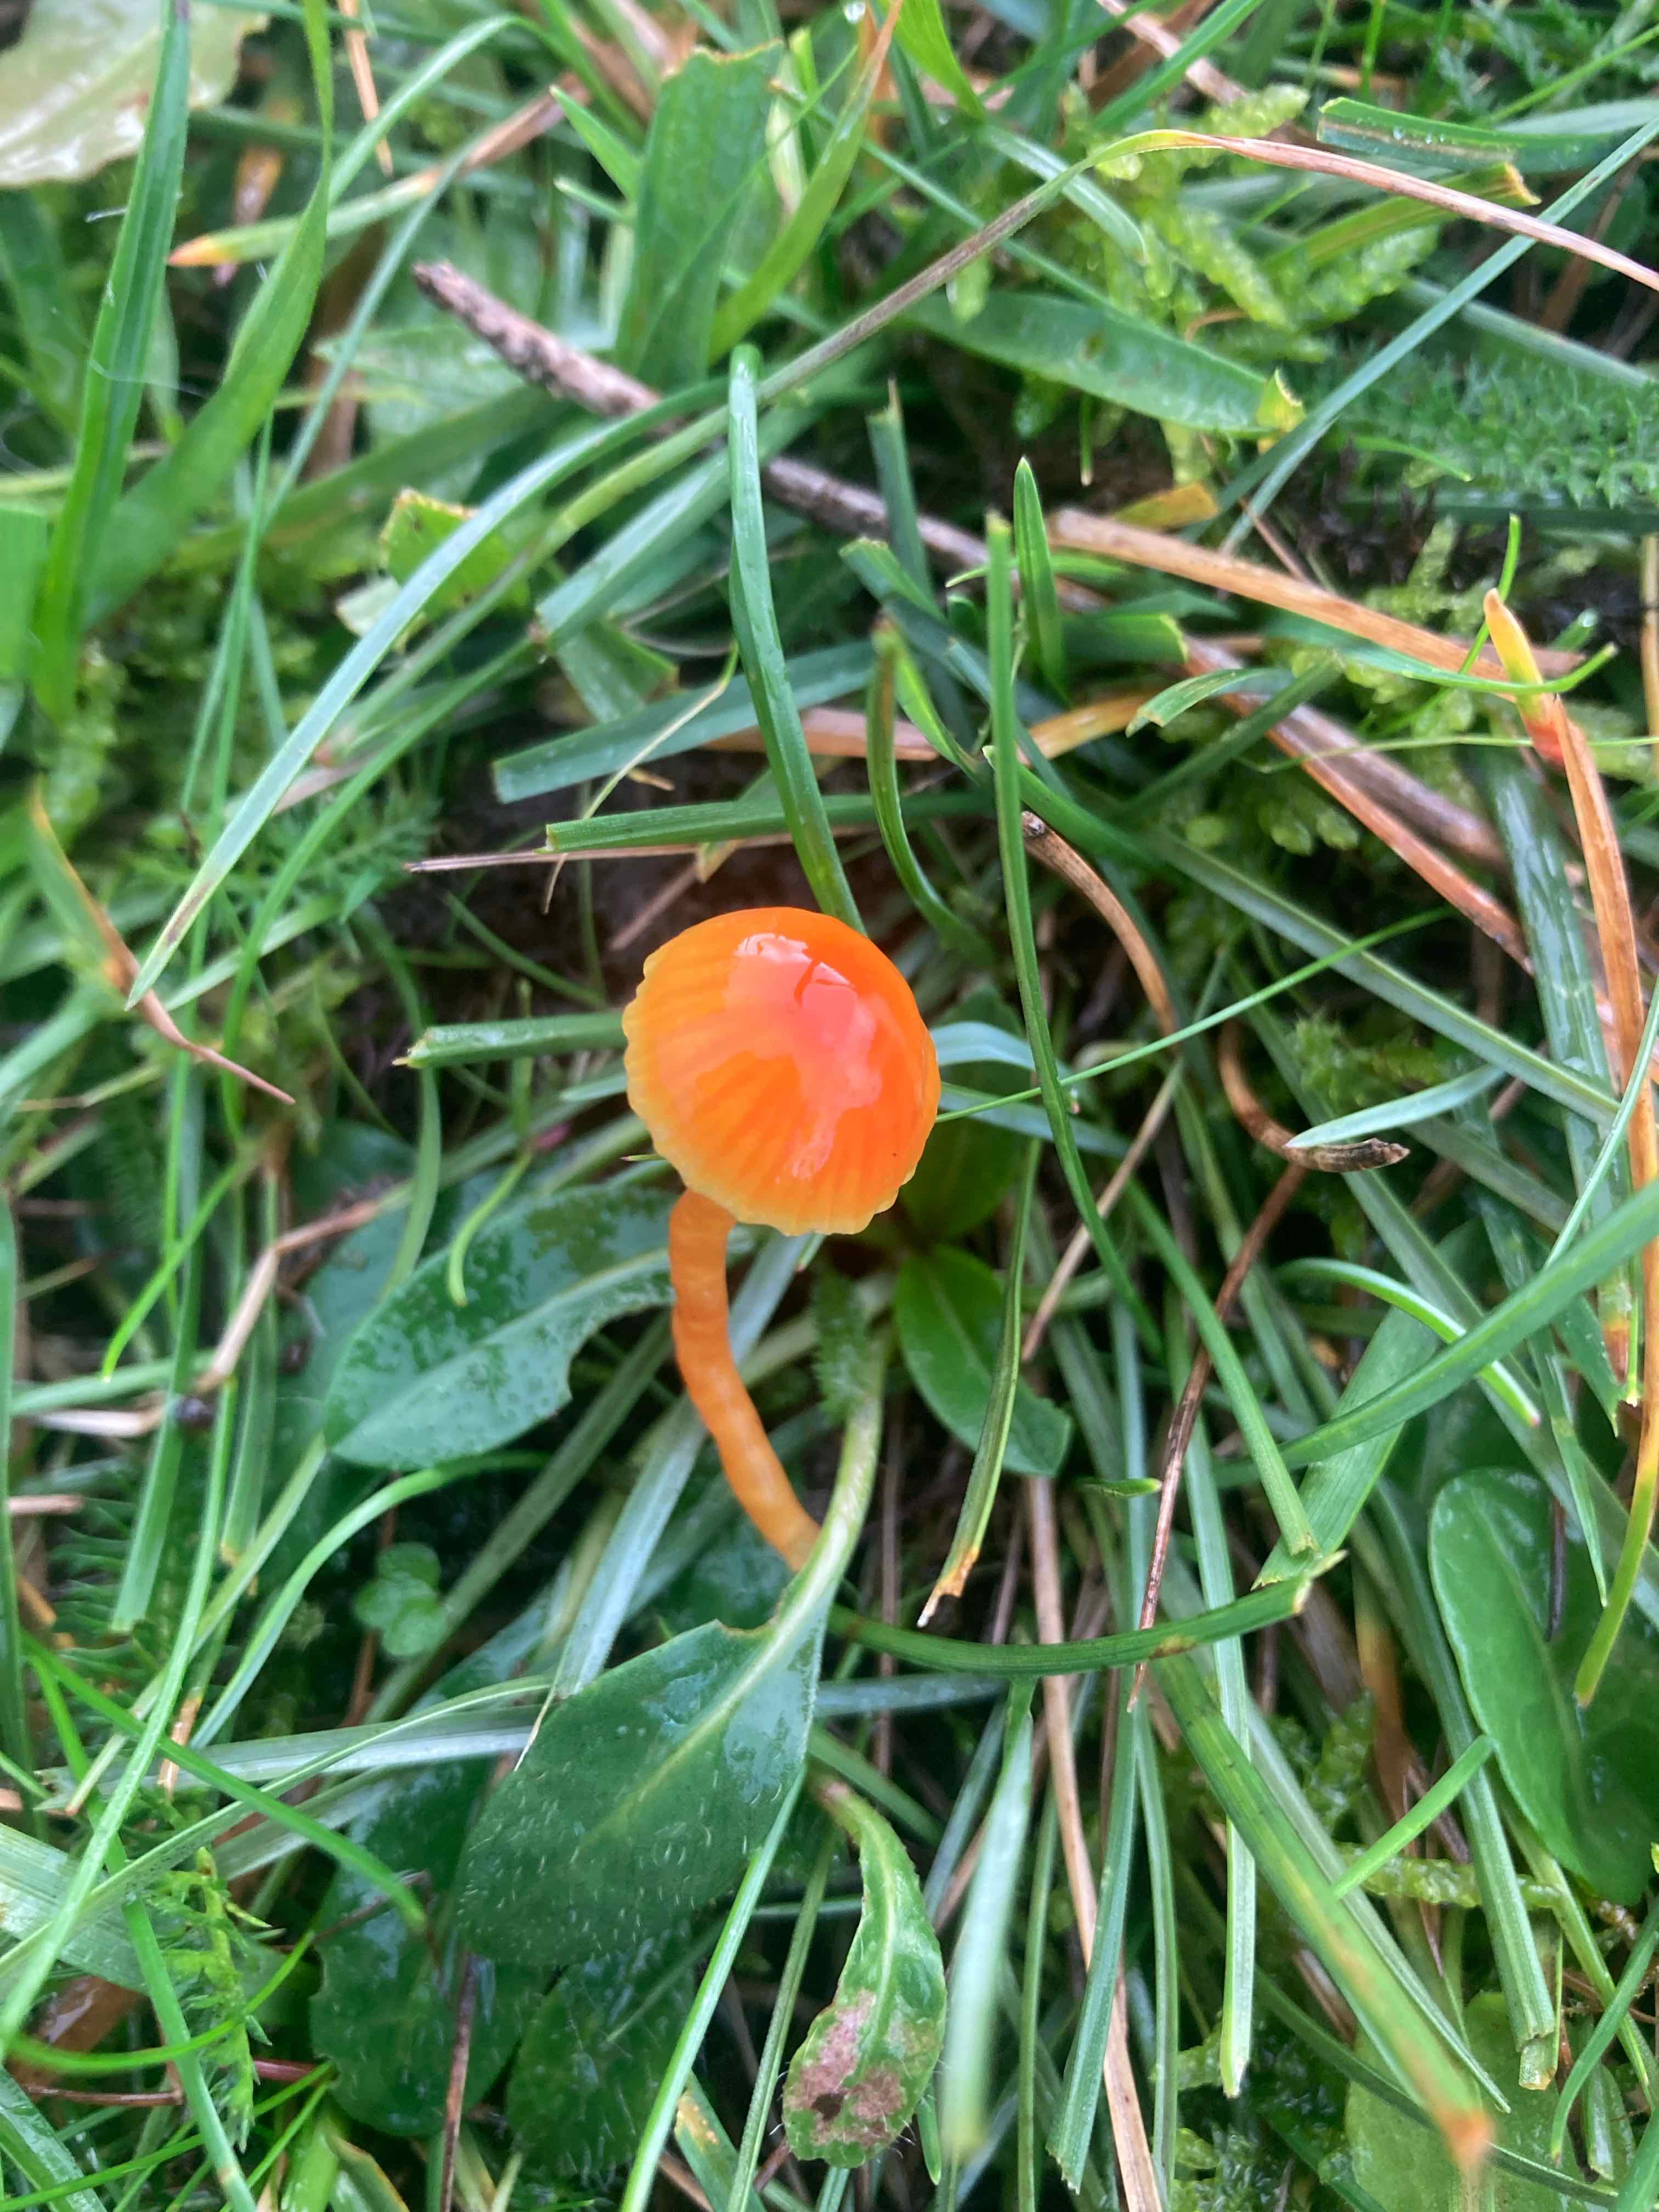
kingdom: Fungi
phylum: Basidiomycota
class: Agaricomycetes
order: Agaricales
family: Hygrophoraceae
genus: Hygrocybe
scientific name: Hygrocybe mucronella
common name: bitter vokshat
